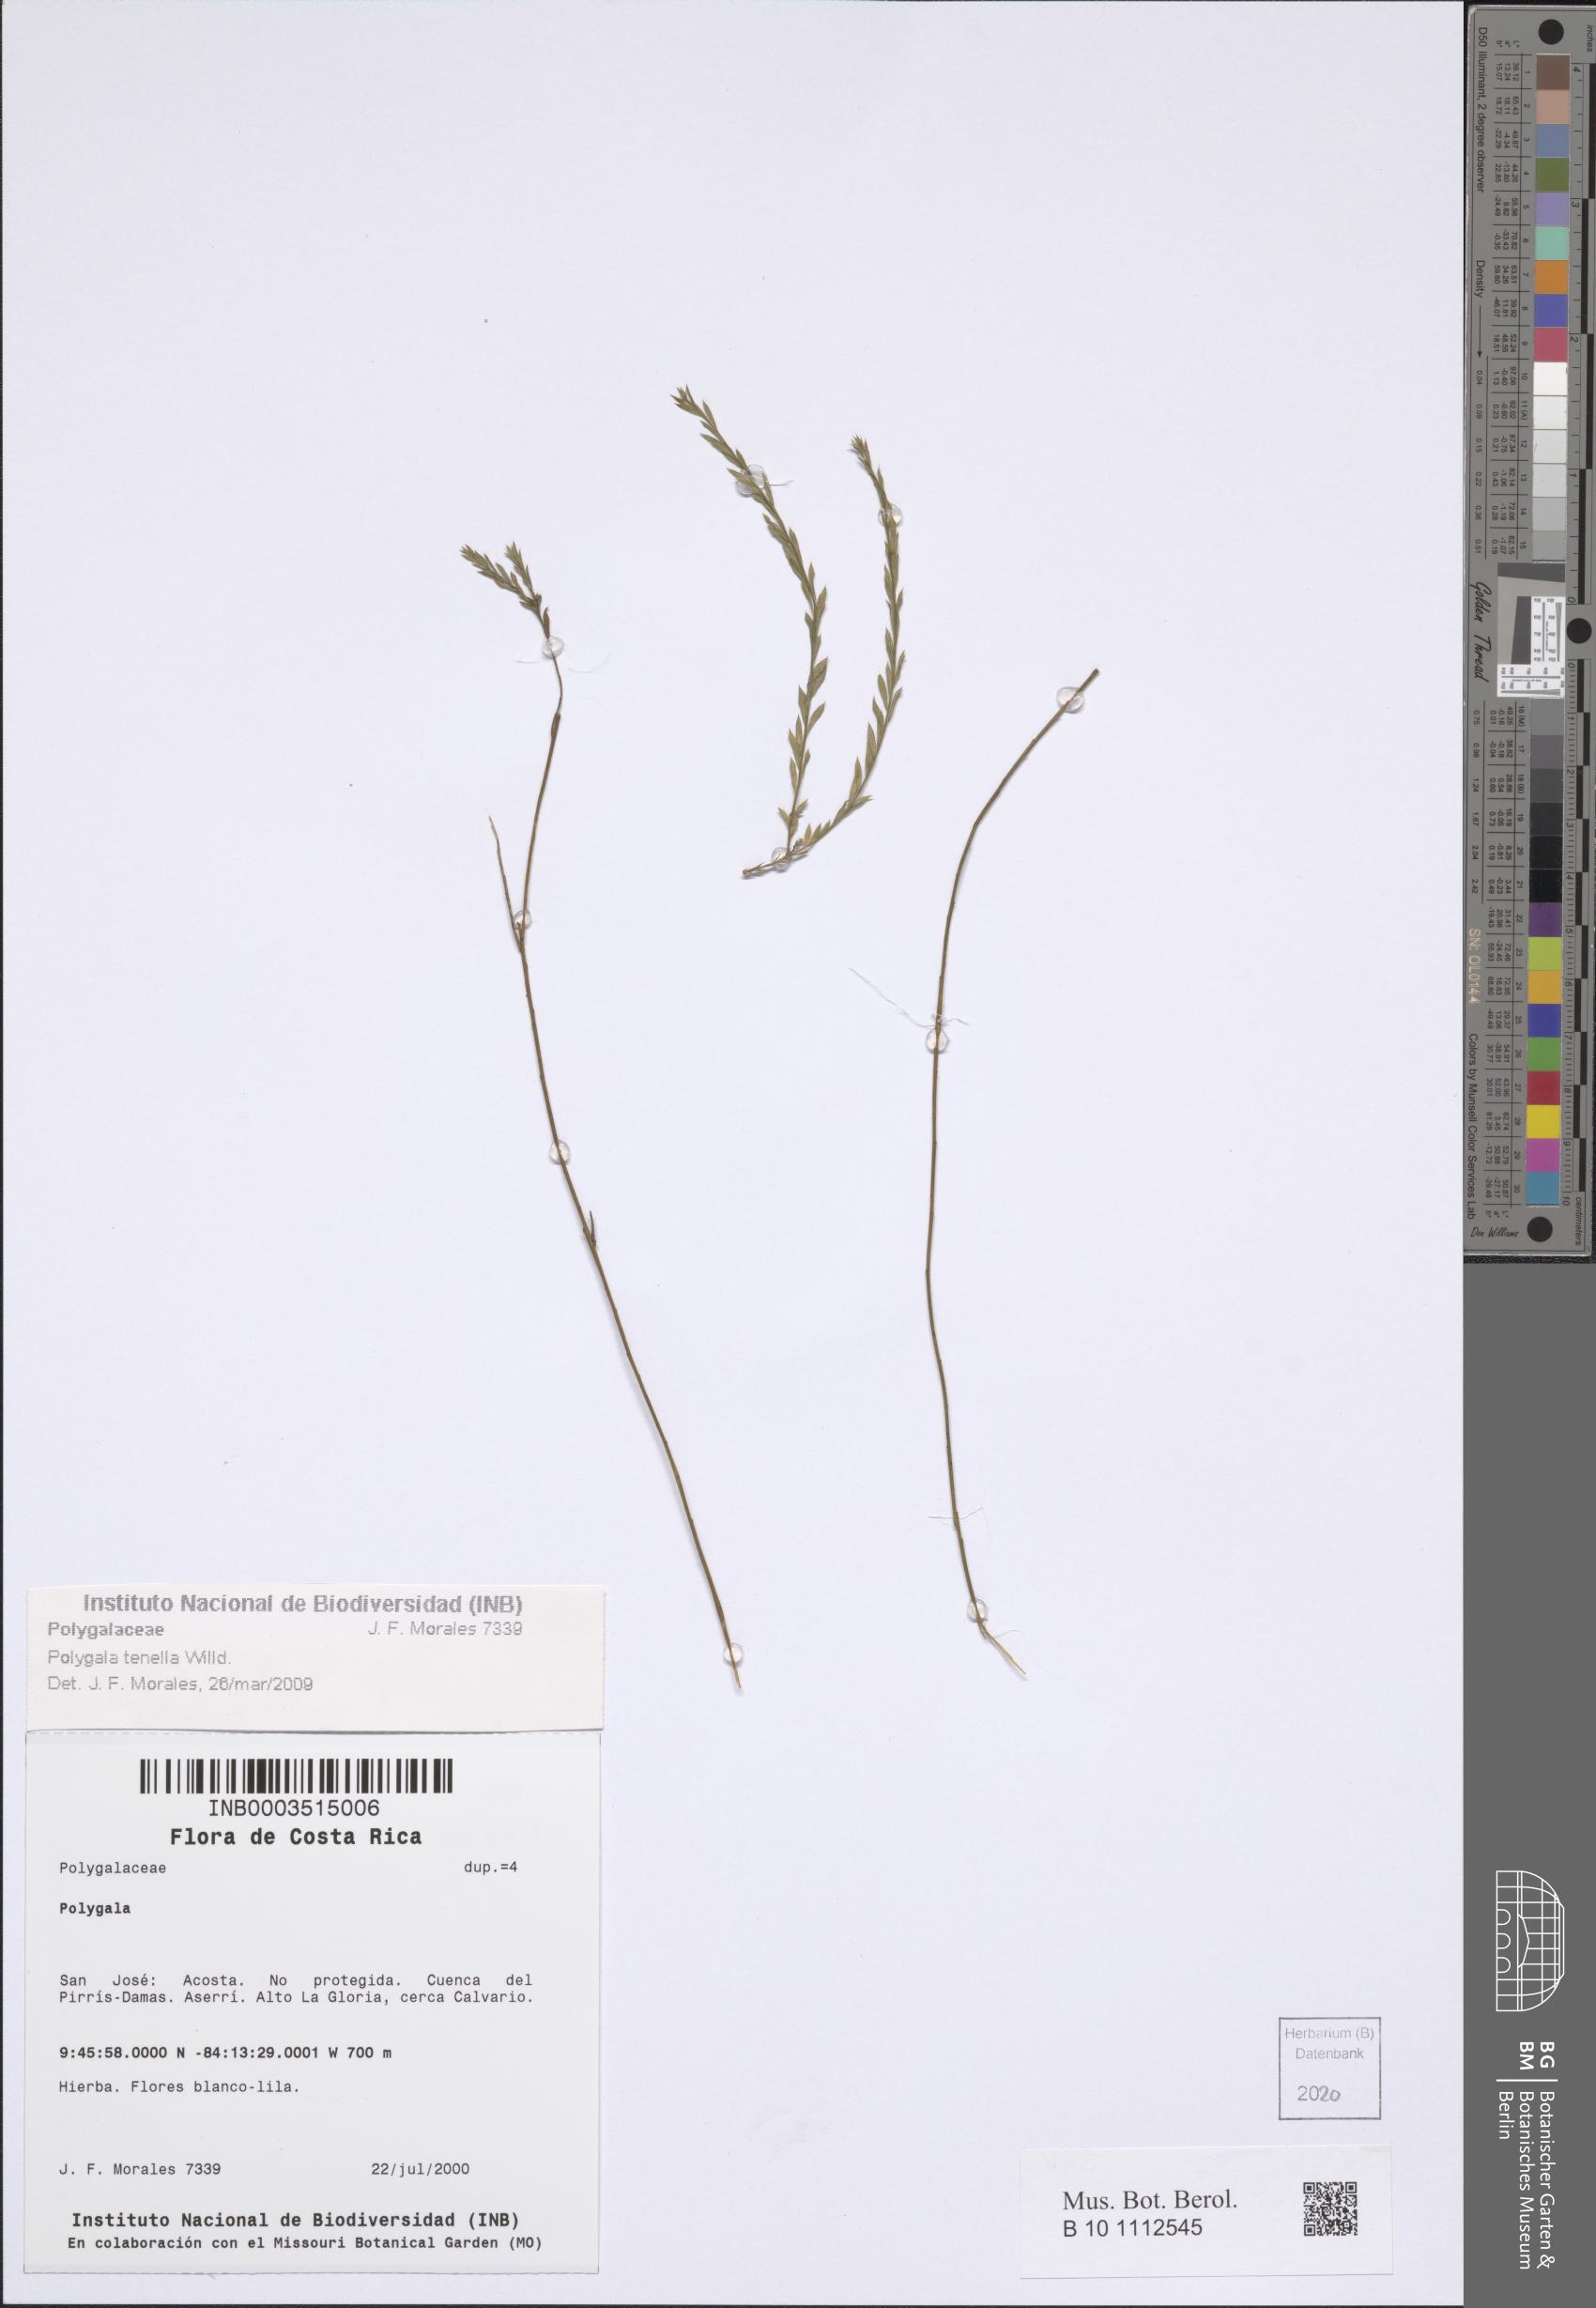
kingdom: Plantae
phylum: Tracheophyta
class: Magnoliopsida
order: Fabales
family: Polygalaceae
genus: Polygala
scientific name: Polygala tenella
